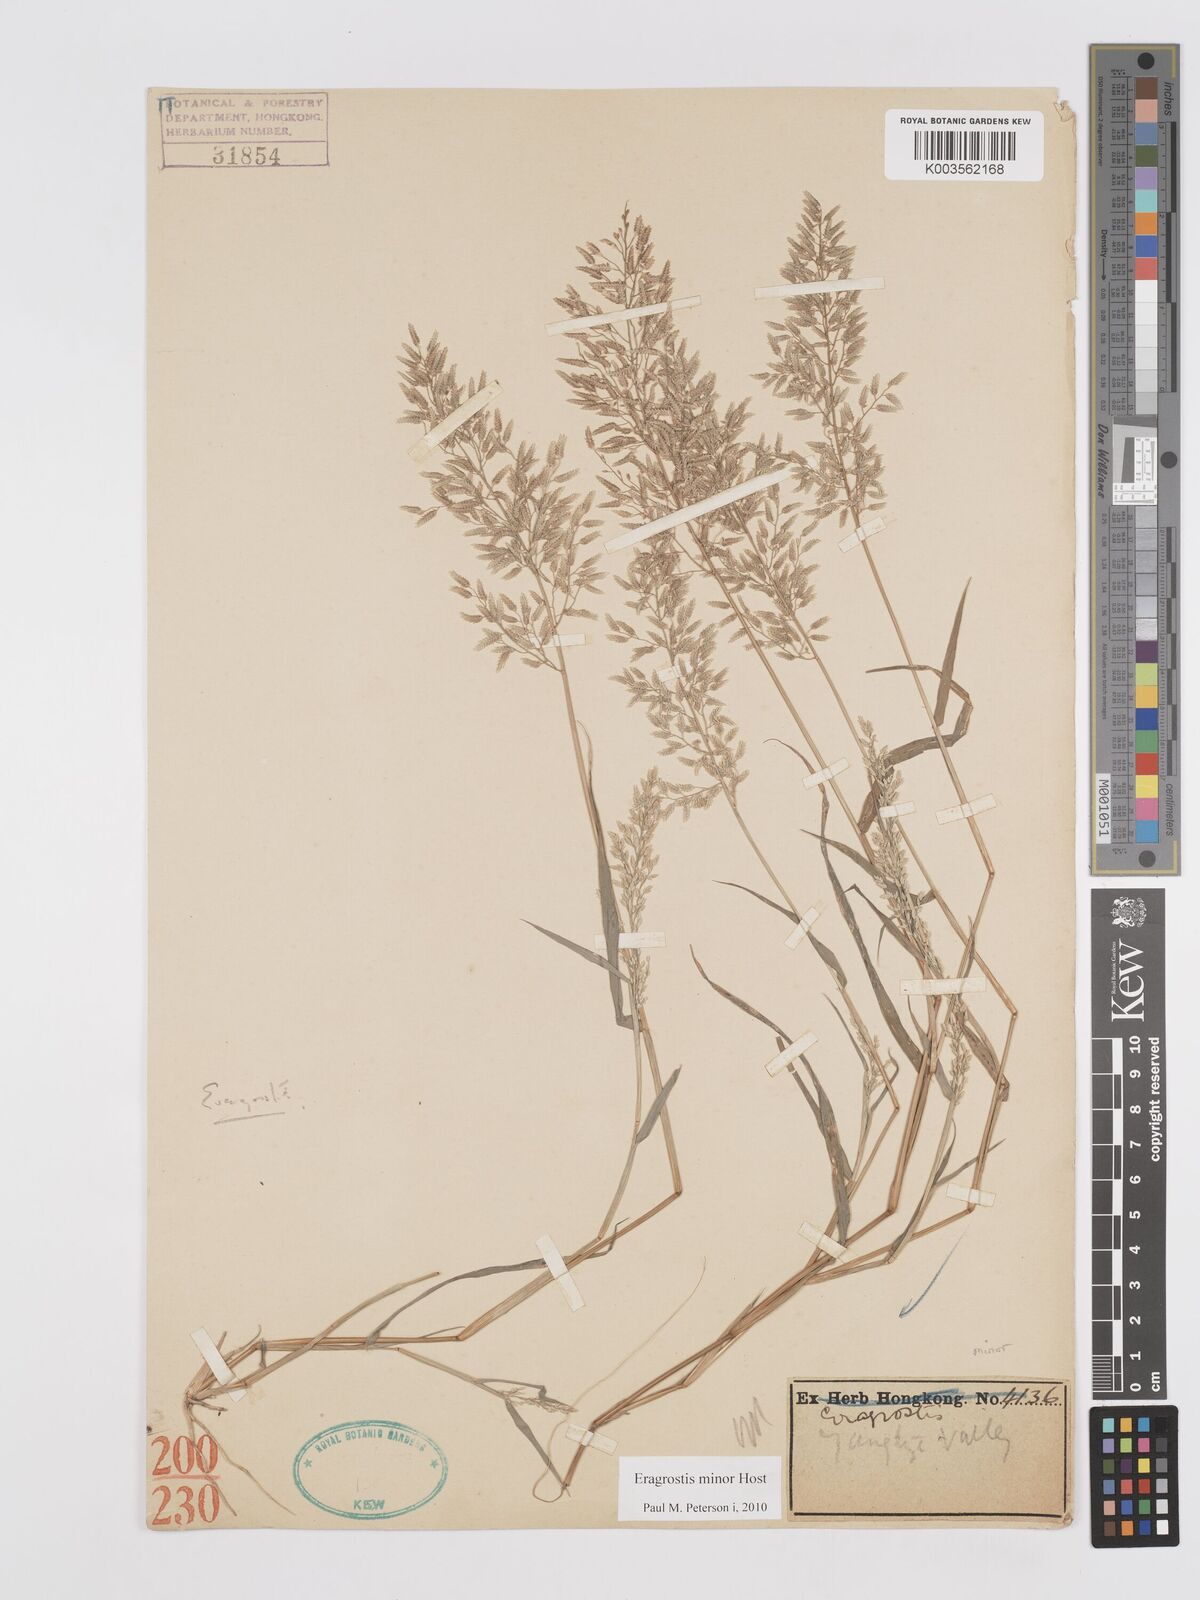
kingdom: Plantae
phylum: Tracheophyta
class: Liliopsida
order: Poales
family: Poaceae
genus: Eragrostis
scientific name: Eragrostis minor
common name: Small love-grass
